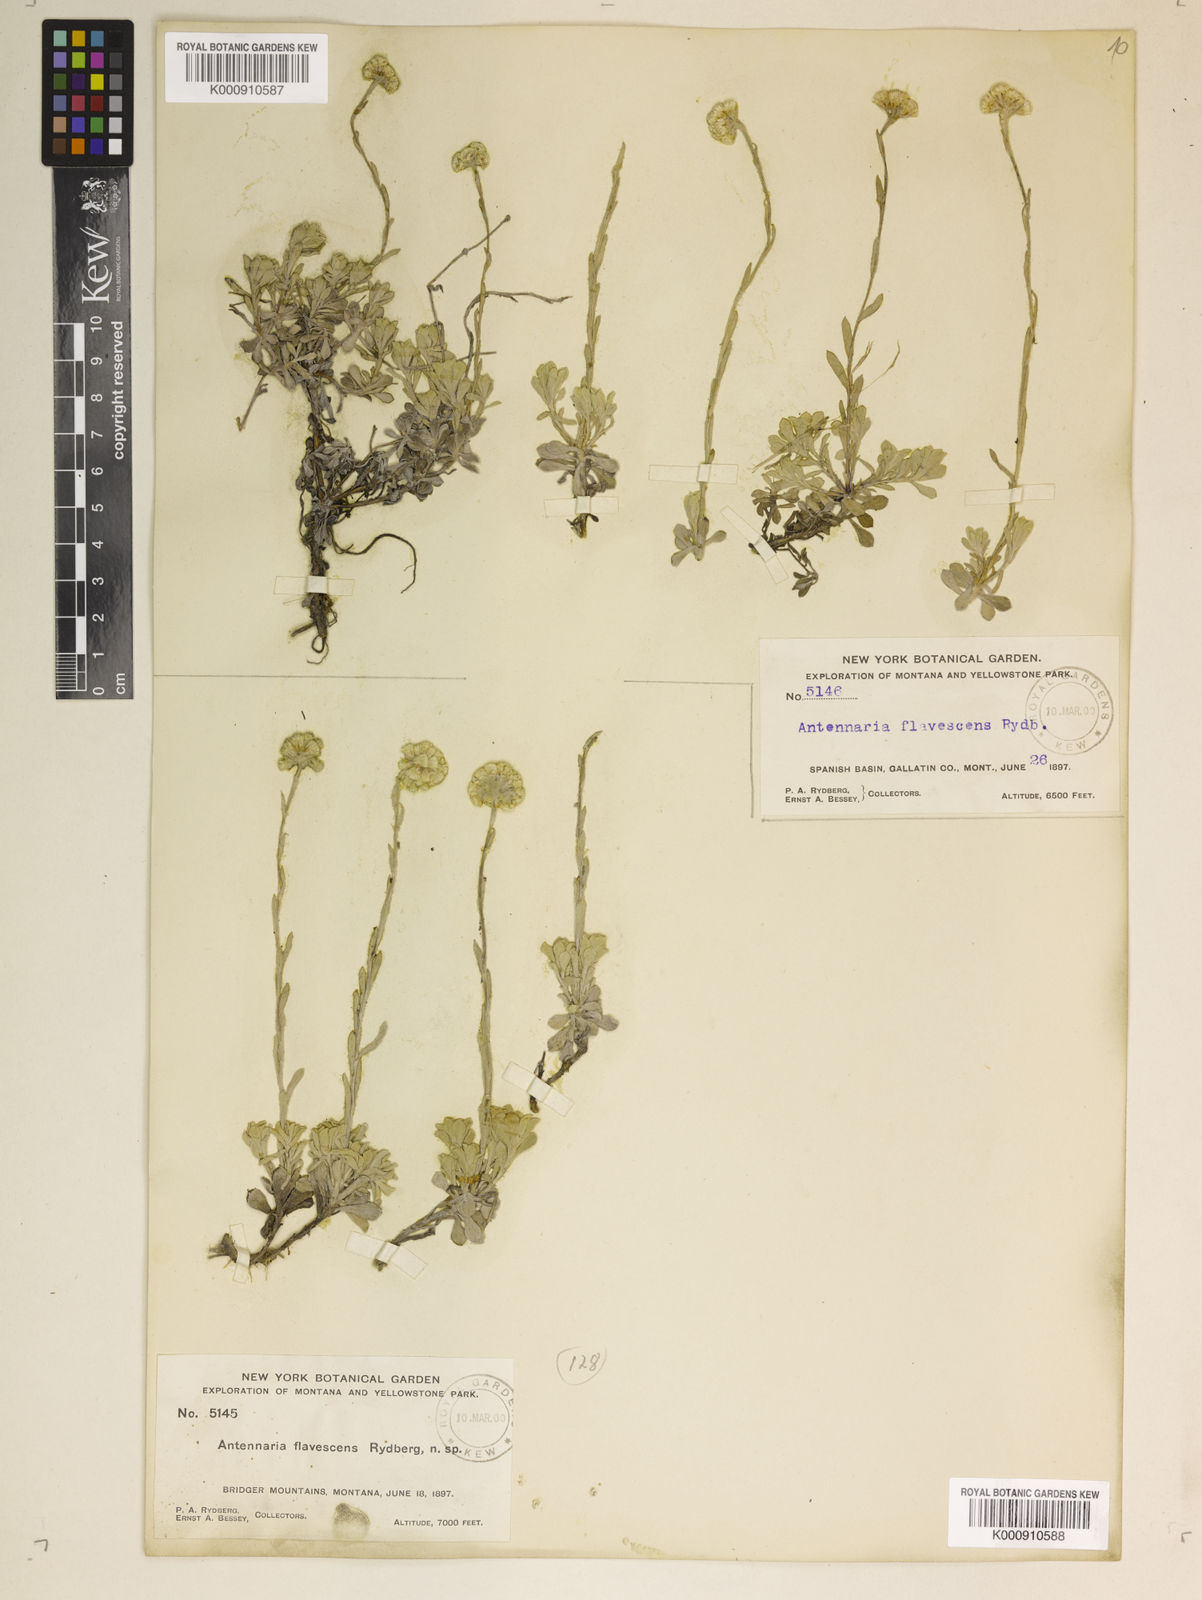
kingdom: Plantae
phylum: Tracheophyta
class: Magnoliopsida
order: Asterales
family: Asteraceae
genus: Antennaria
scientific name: Antennaria umbrinella
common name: Brown pussytoes
